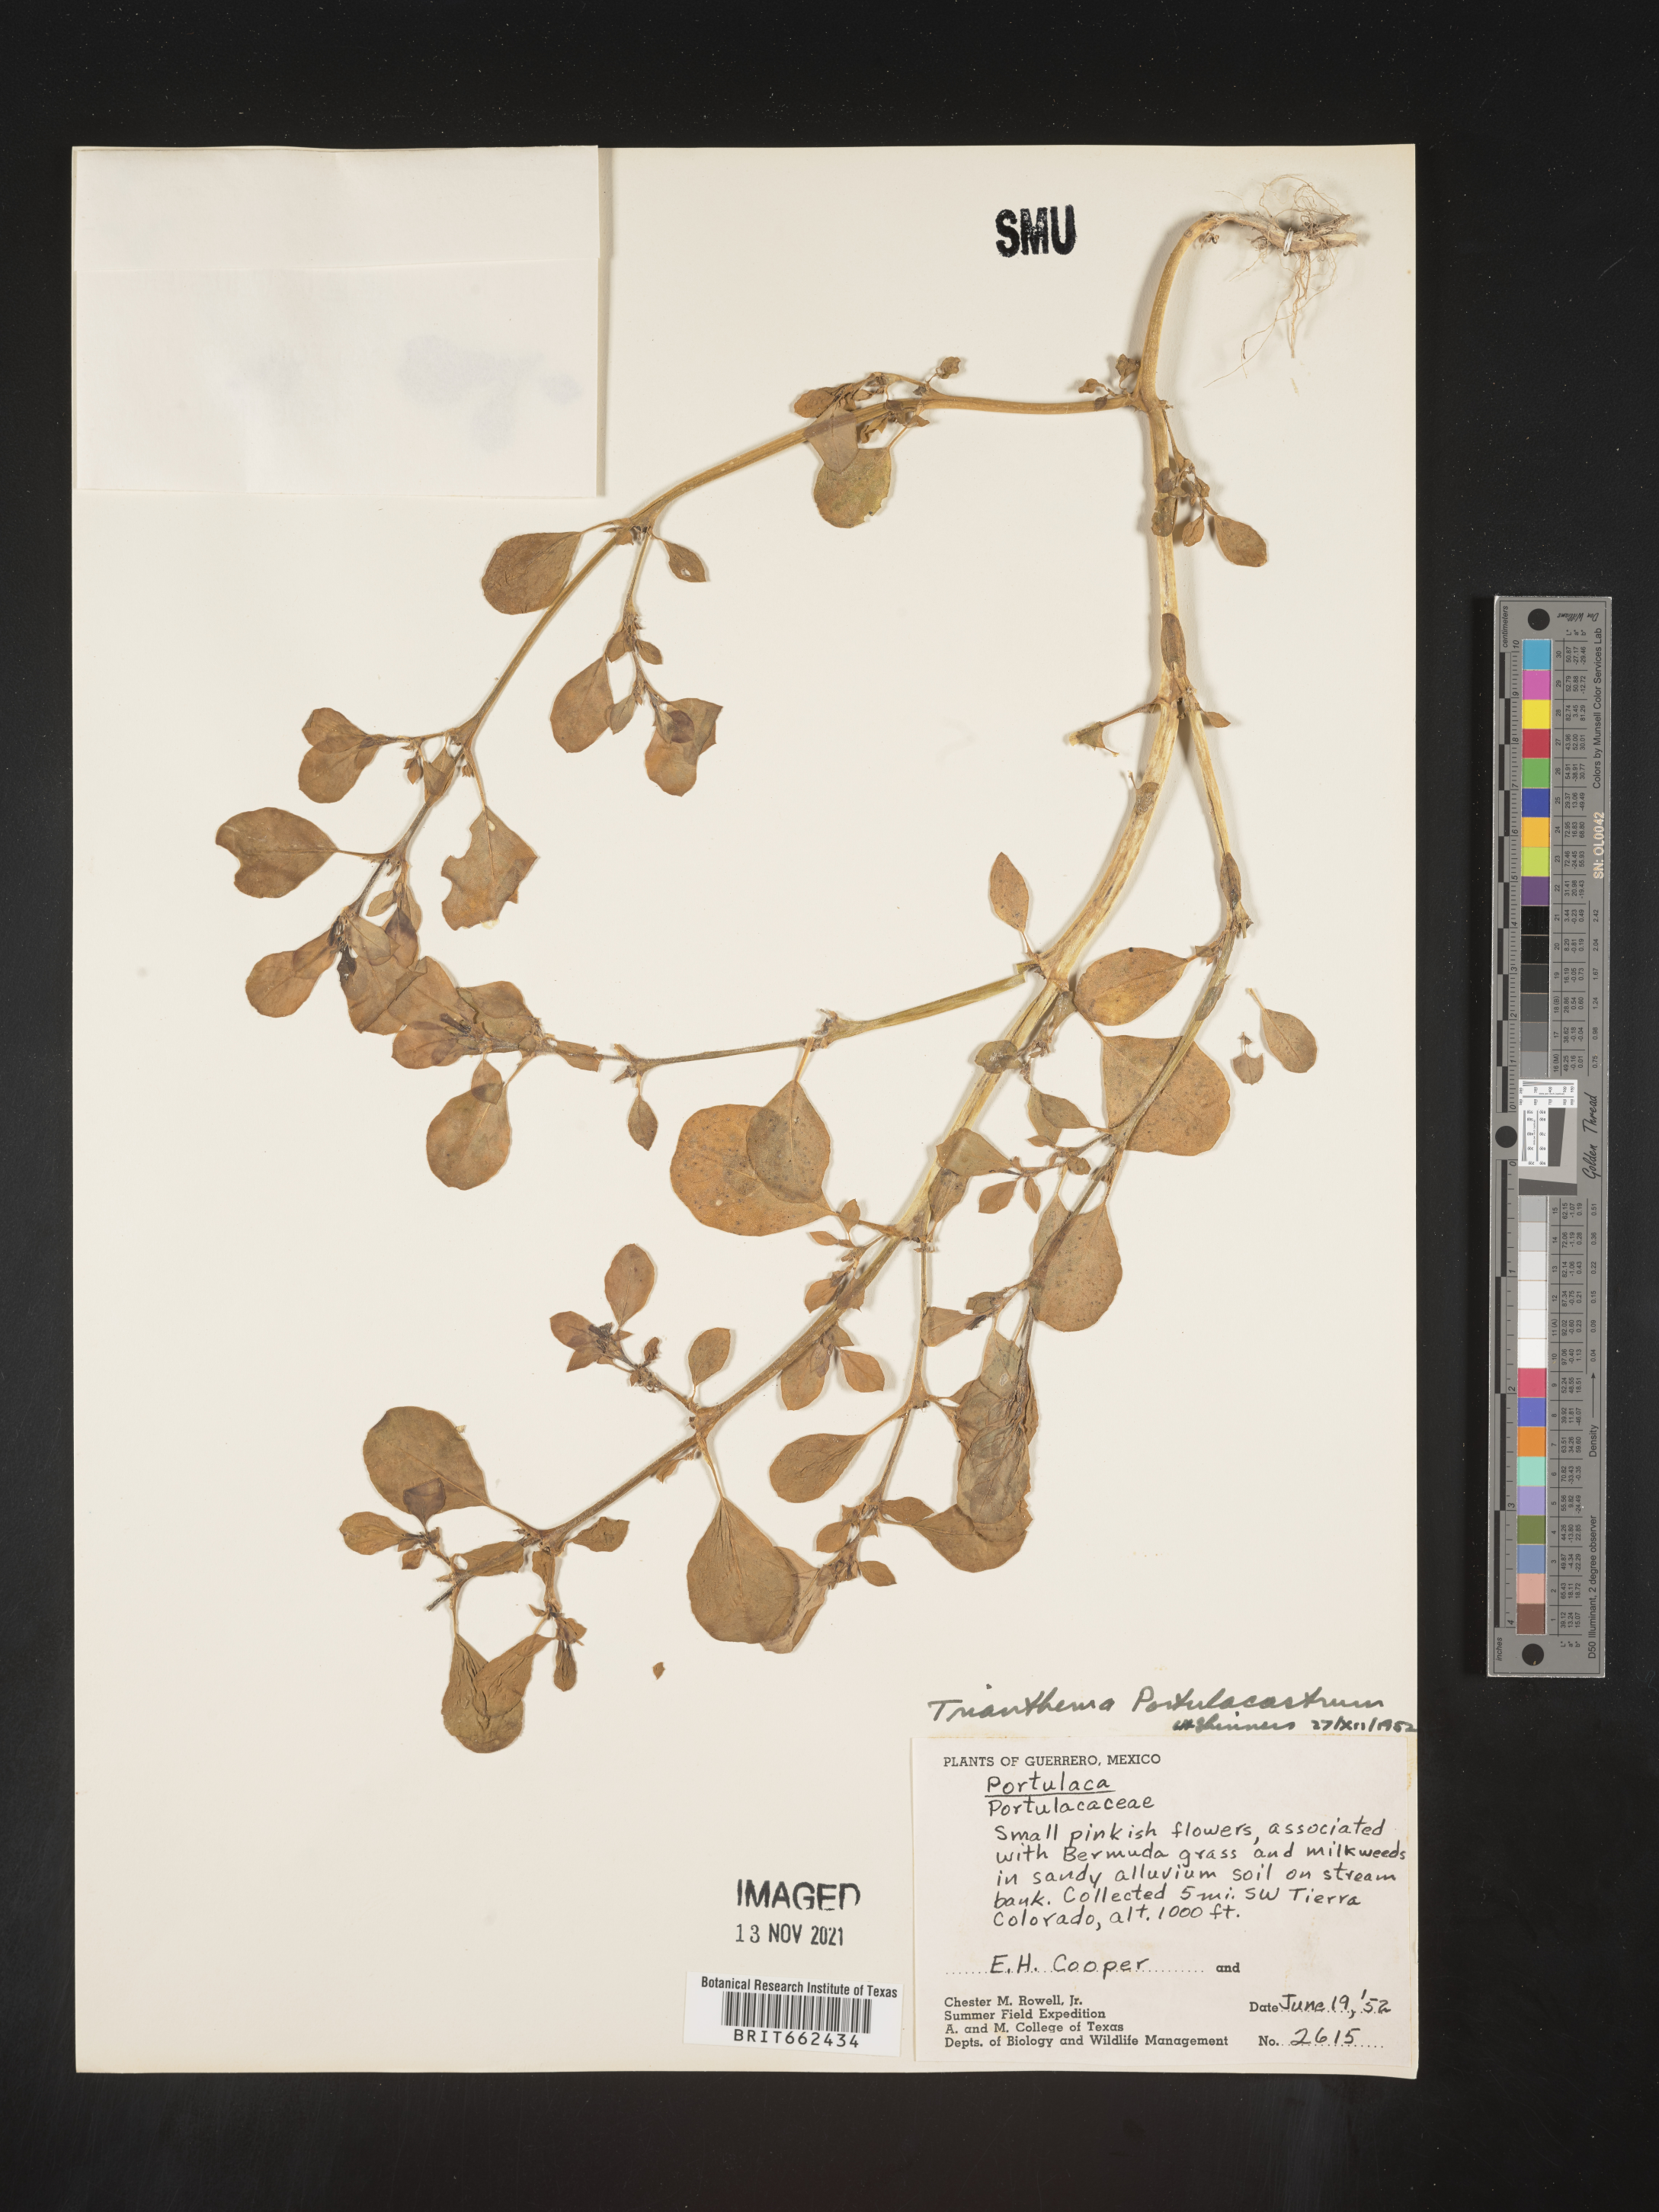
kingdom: Plantae
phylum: Tracheophyta
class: Magnoliopsida
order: Caryophyllales
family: Aizoaceae
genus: Trianthema
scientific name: Trianthema
